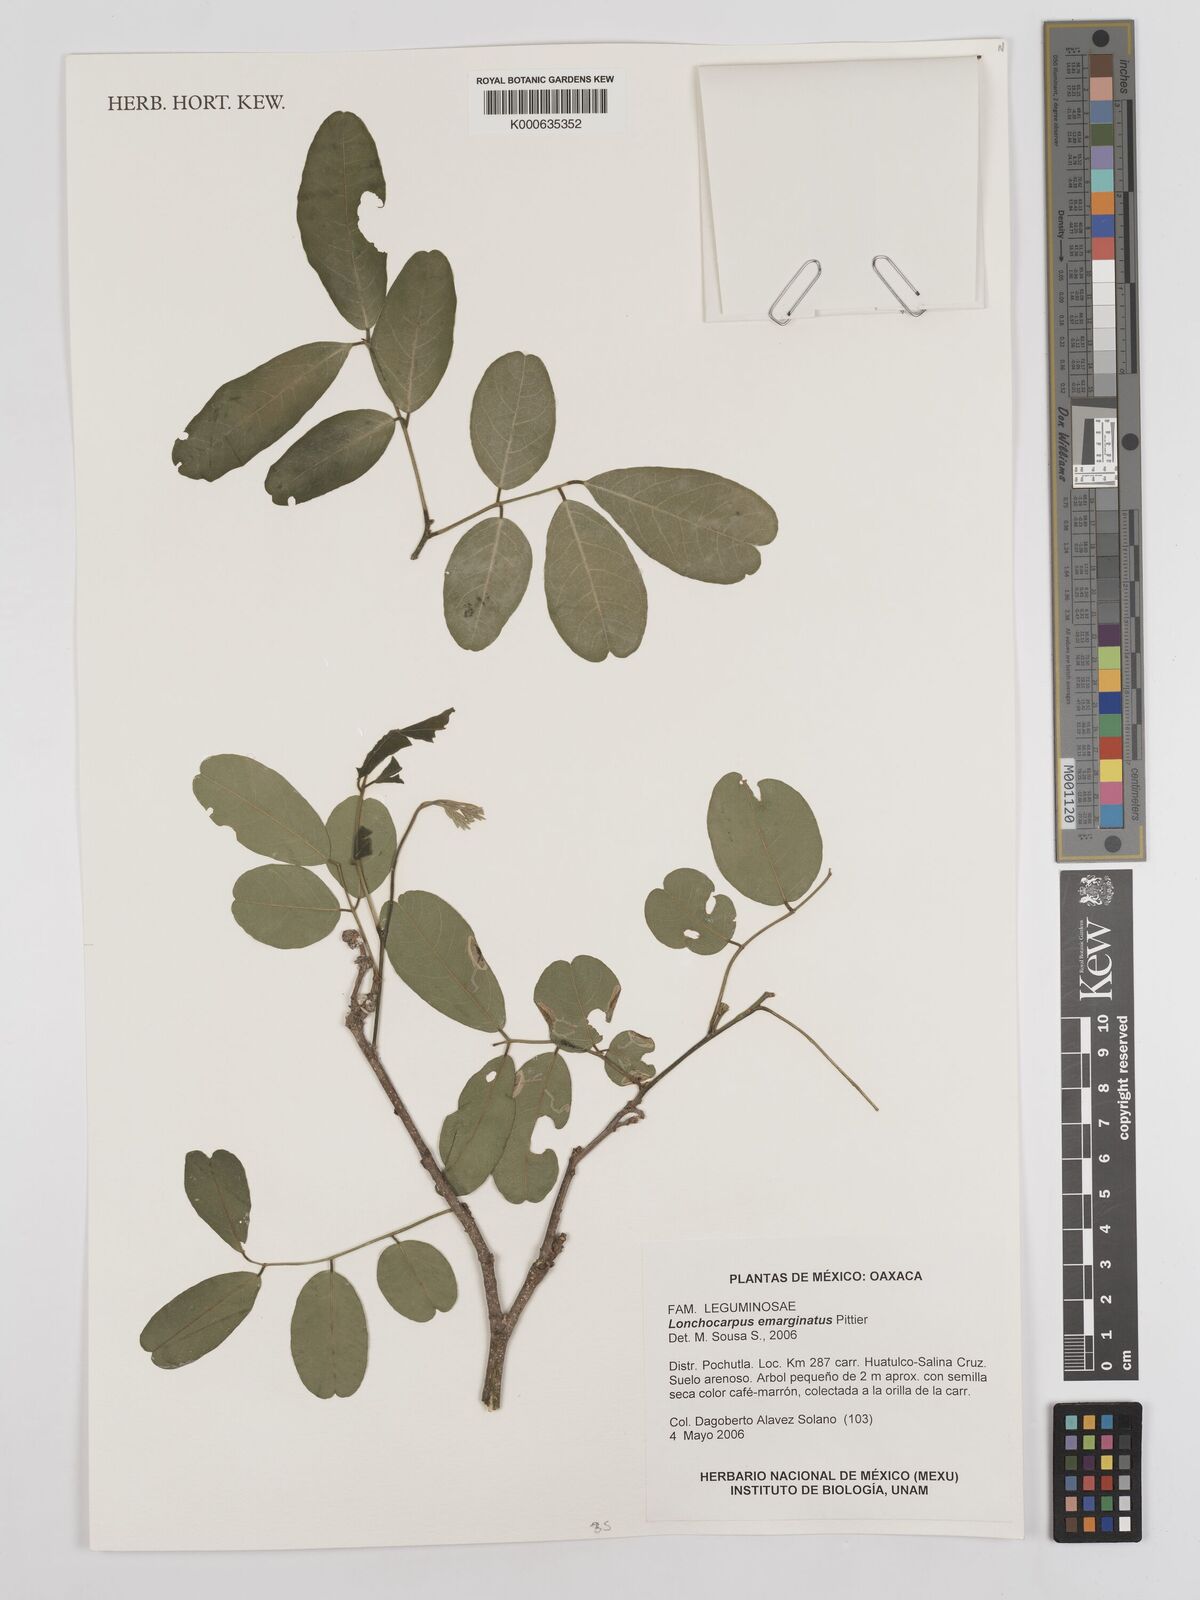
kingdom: Plantae
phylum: Tracheophyta
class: Magnoliopsida
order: Fabales
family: Fabaceae
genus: Lonchocarpus
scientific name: Lonchocarpus emarginatus
